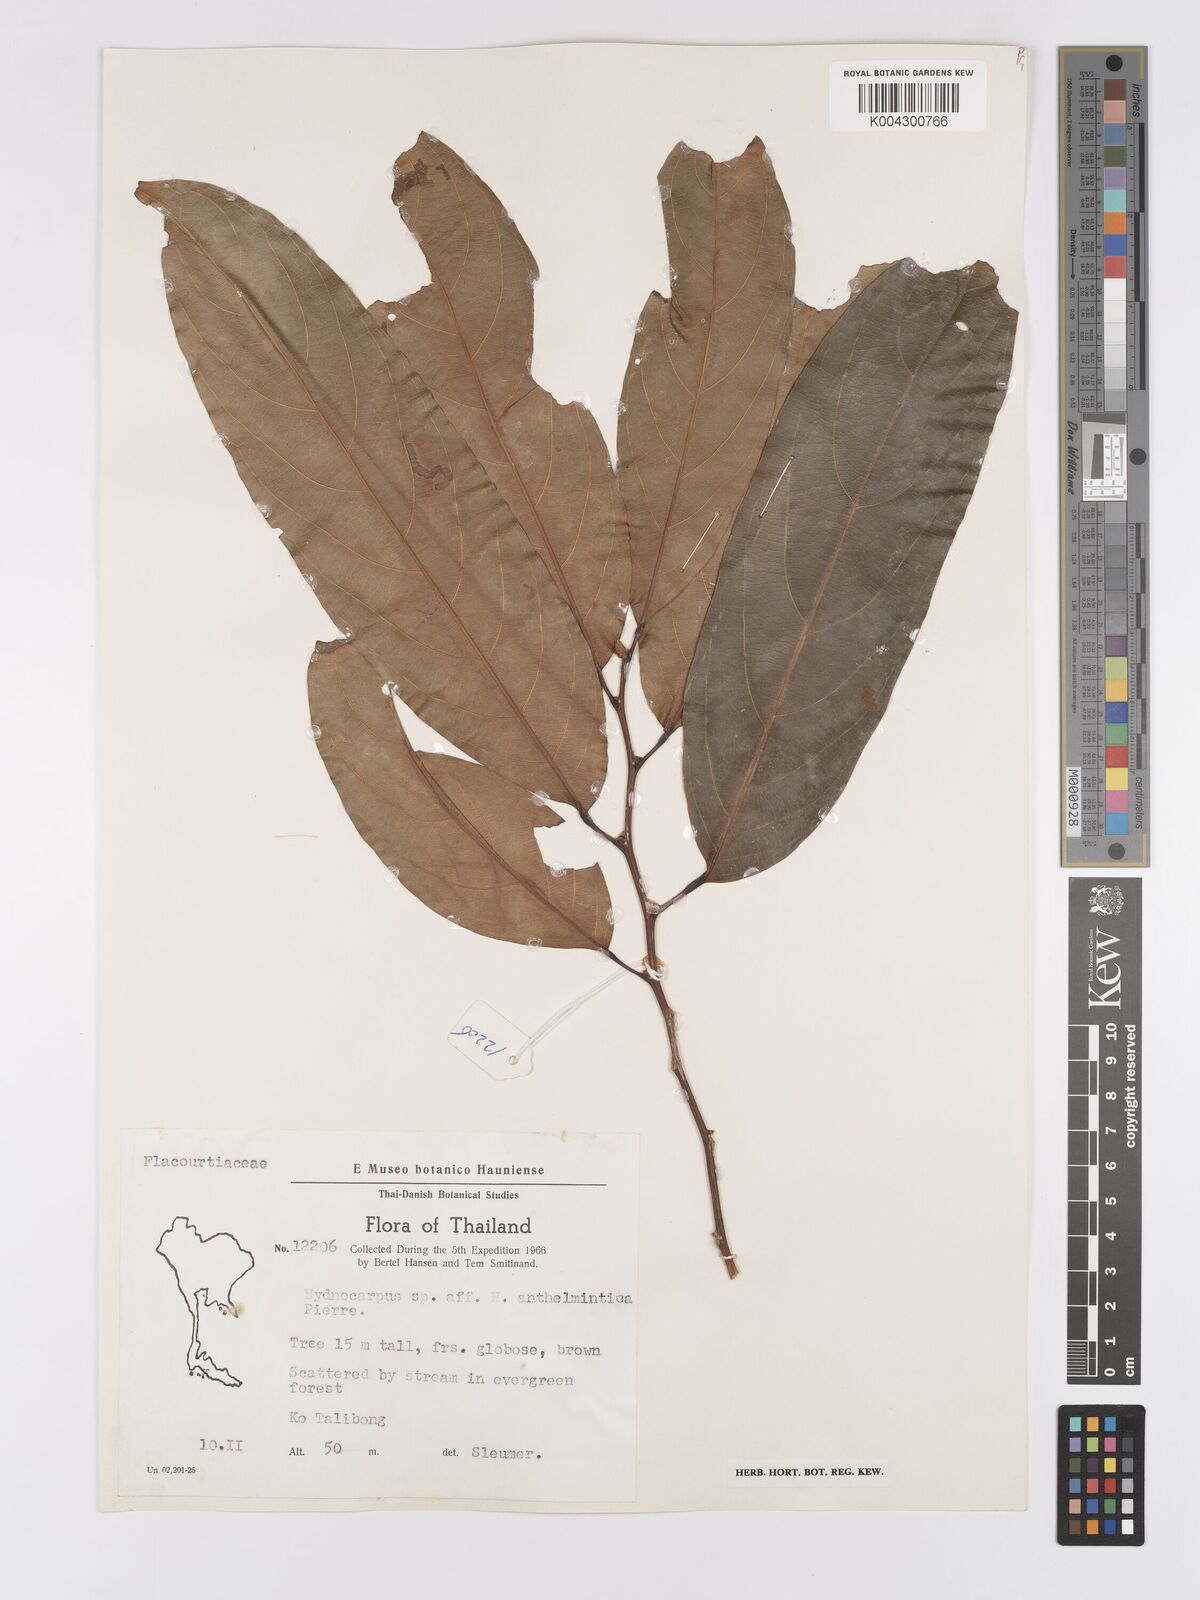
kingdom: Plantae
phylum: Tracheophyta
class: Magnoliopsida
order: Malpighiales
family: Achariaceae
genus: Hydnocarpus
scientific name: Hydnocarpus castaneus
